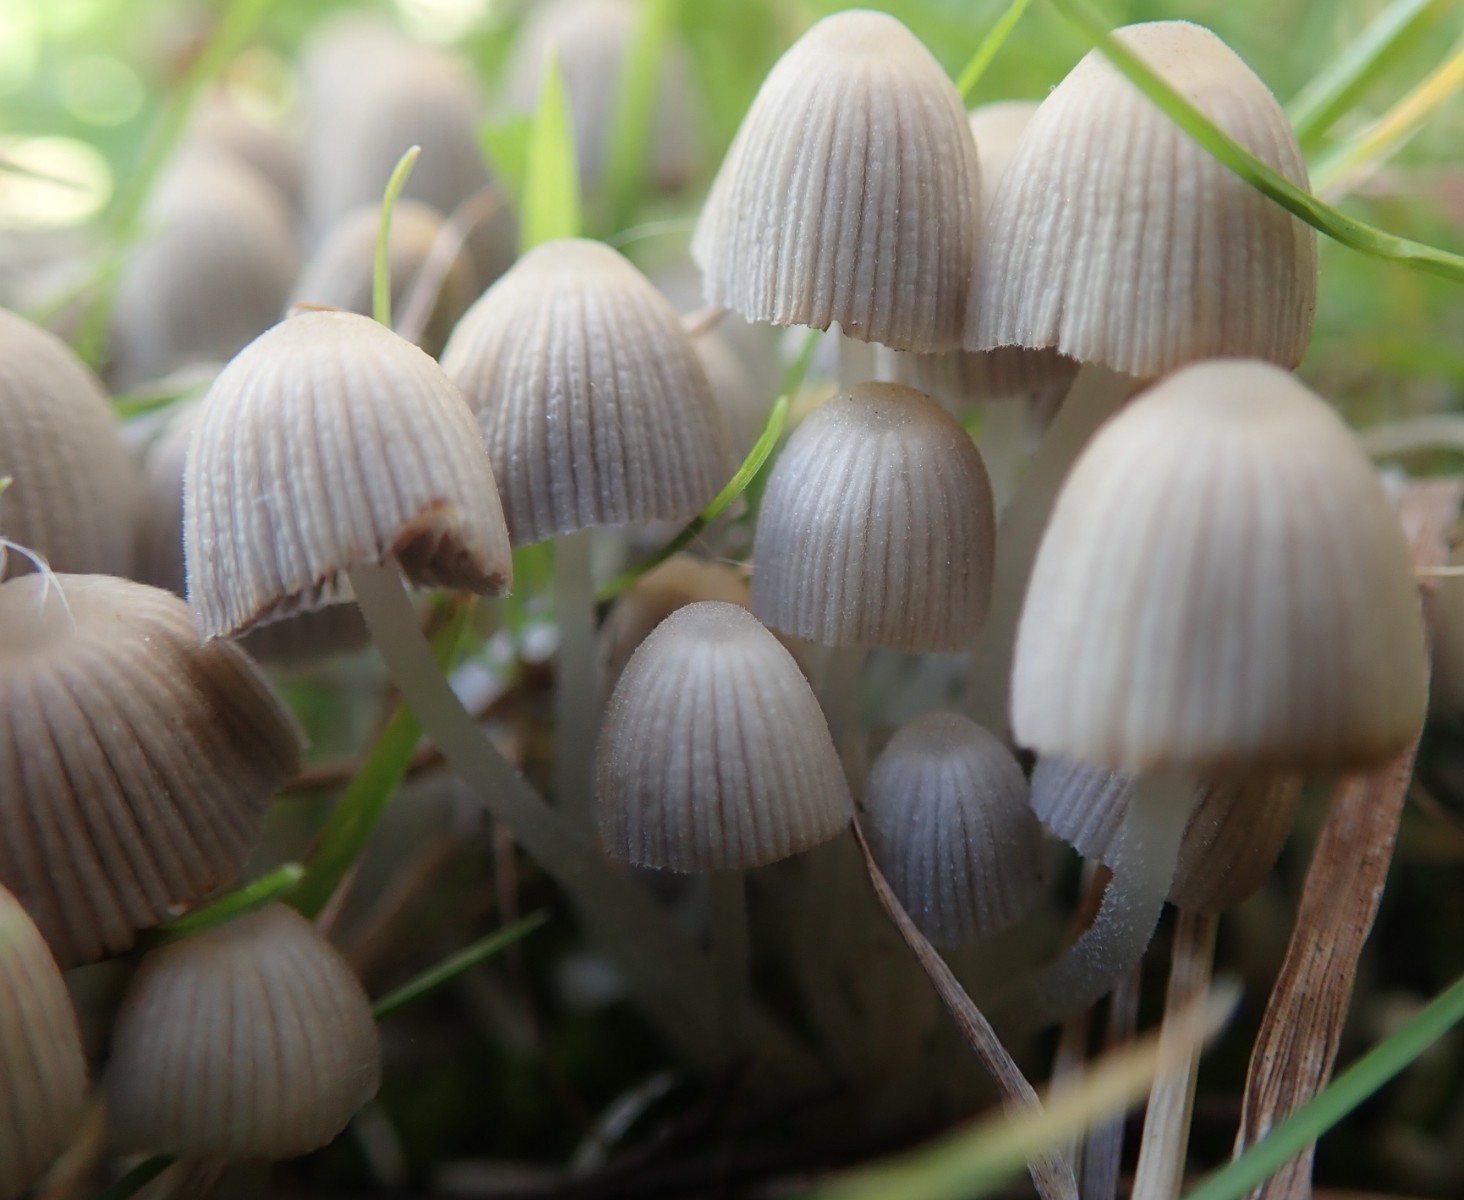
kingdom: Fungi
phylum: Basidiomycota
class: Agaricomycetes
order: Agaricales
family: Psathyrellaceae
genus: Coprinellus
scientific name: Coprinellus disseminatus
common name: bredsået blækhat
